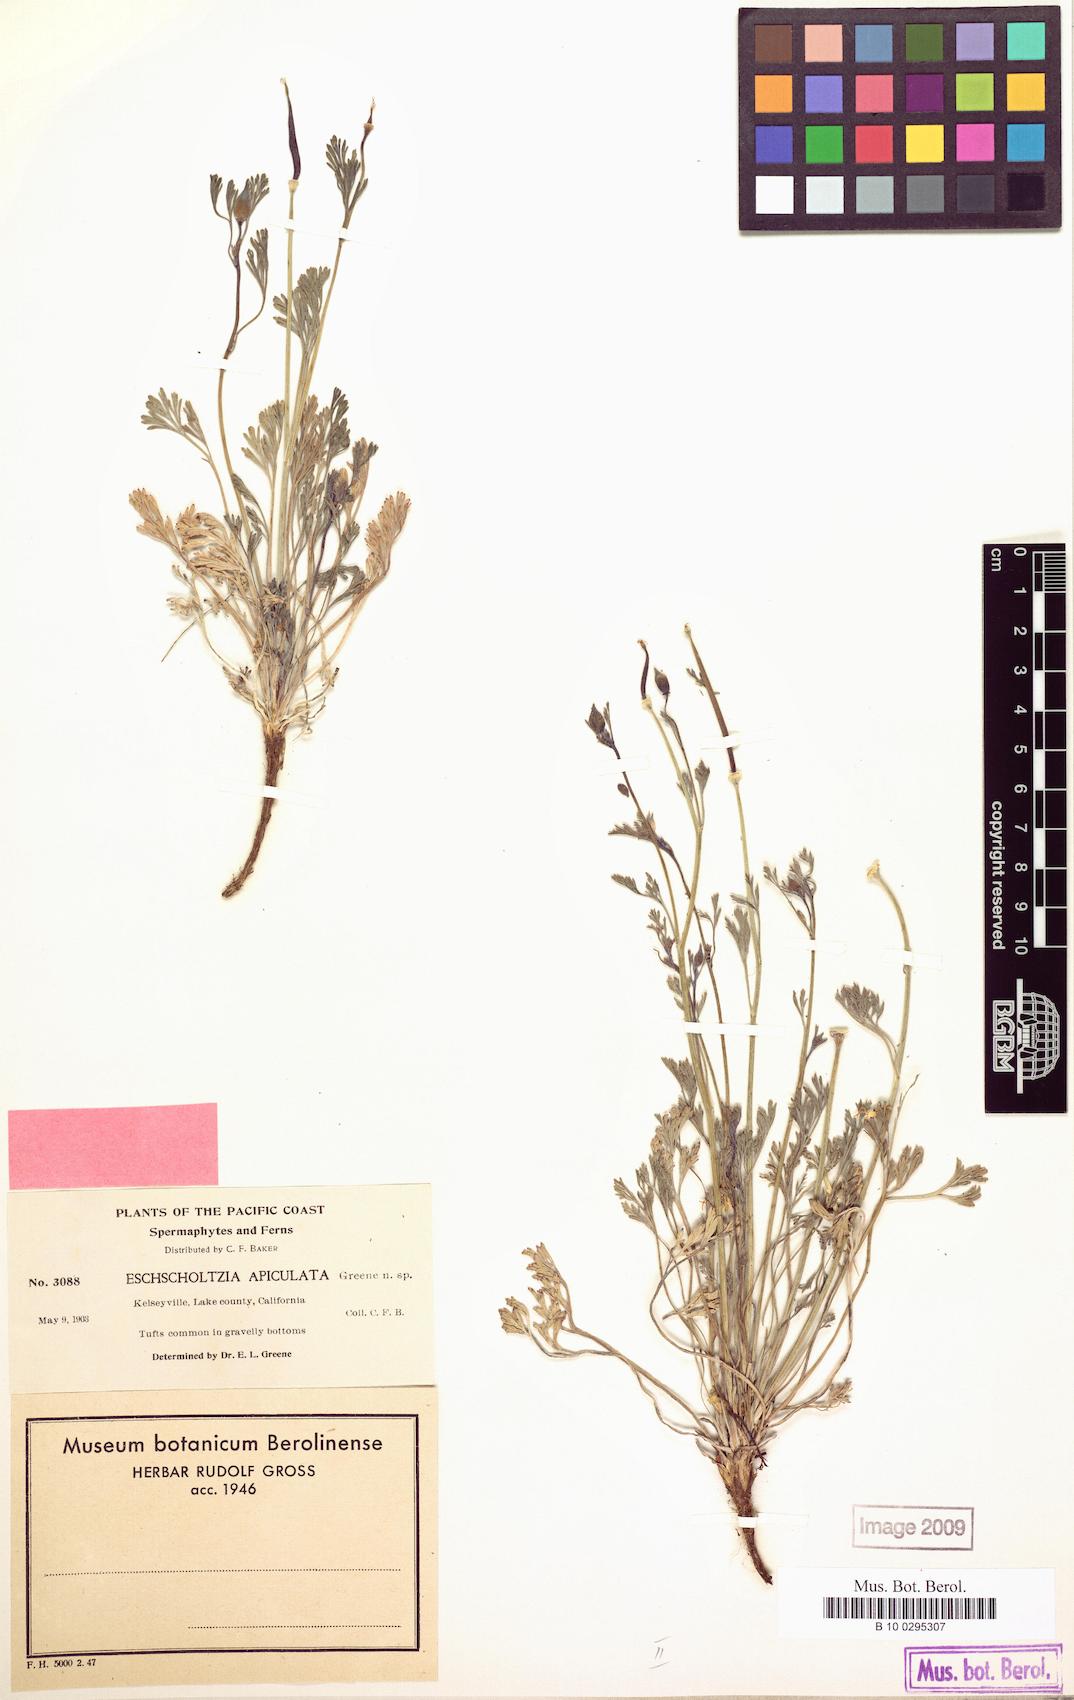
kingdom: Plantae
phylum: Tracheophyta
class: Magnoliopsida
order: Ranunculales
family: Papaveraceae
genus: Eschscholzia
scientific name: Eschscholzia californica
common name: California poppy
